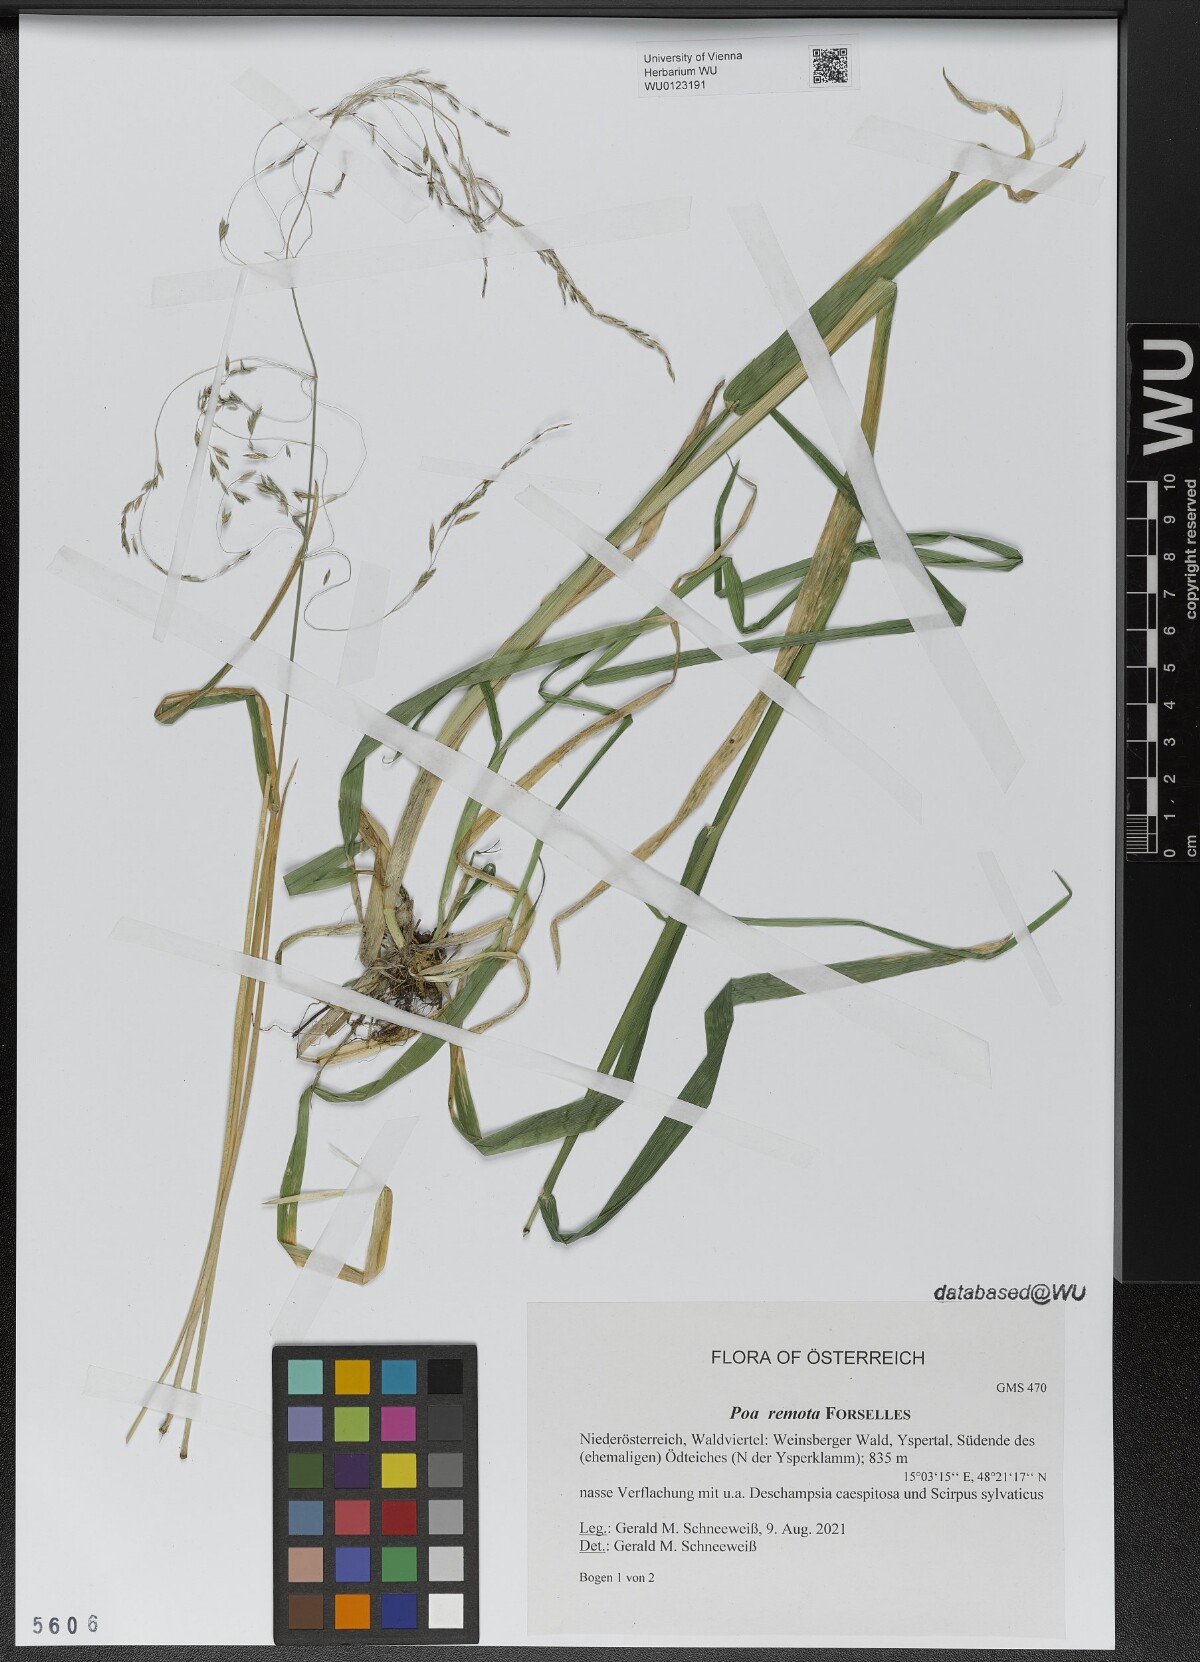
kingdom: Plantae
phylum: Tracheophyta
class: Liliopsida
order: Poales
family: Poaceae
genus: Poa
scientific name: Poa remota
